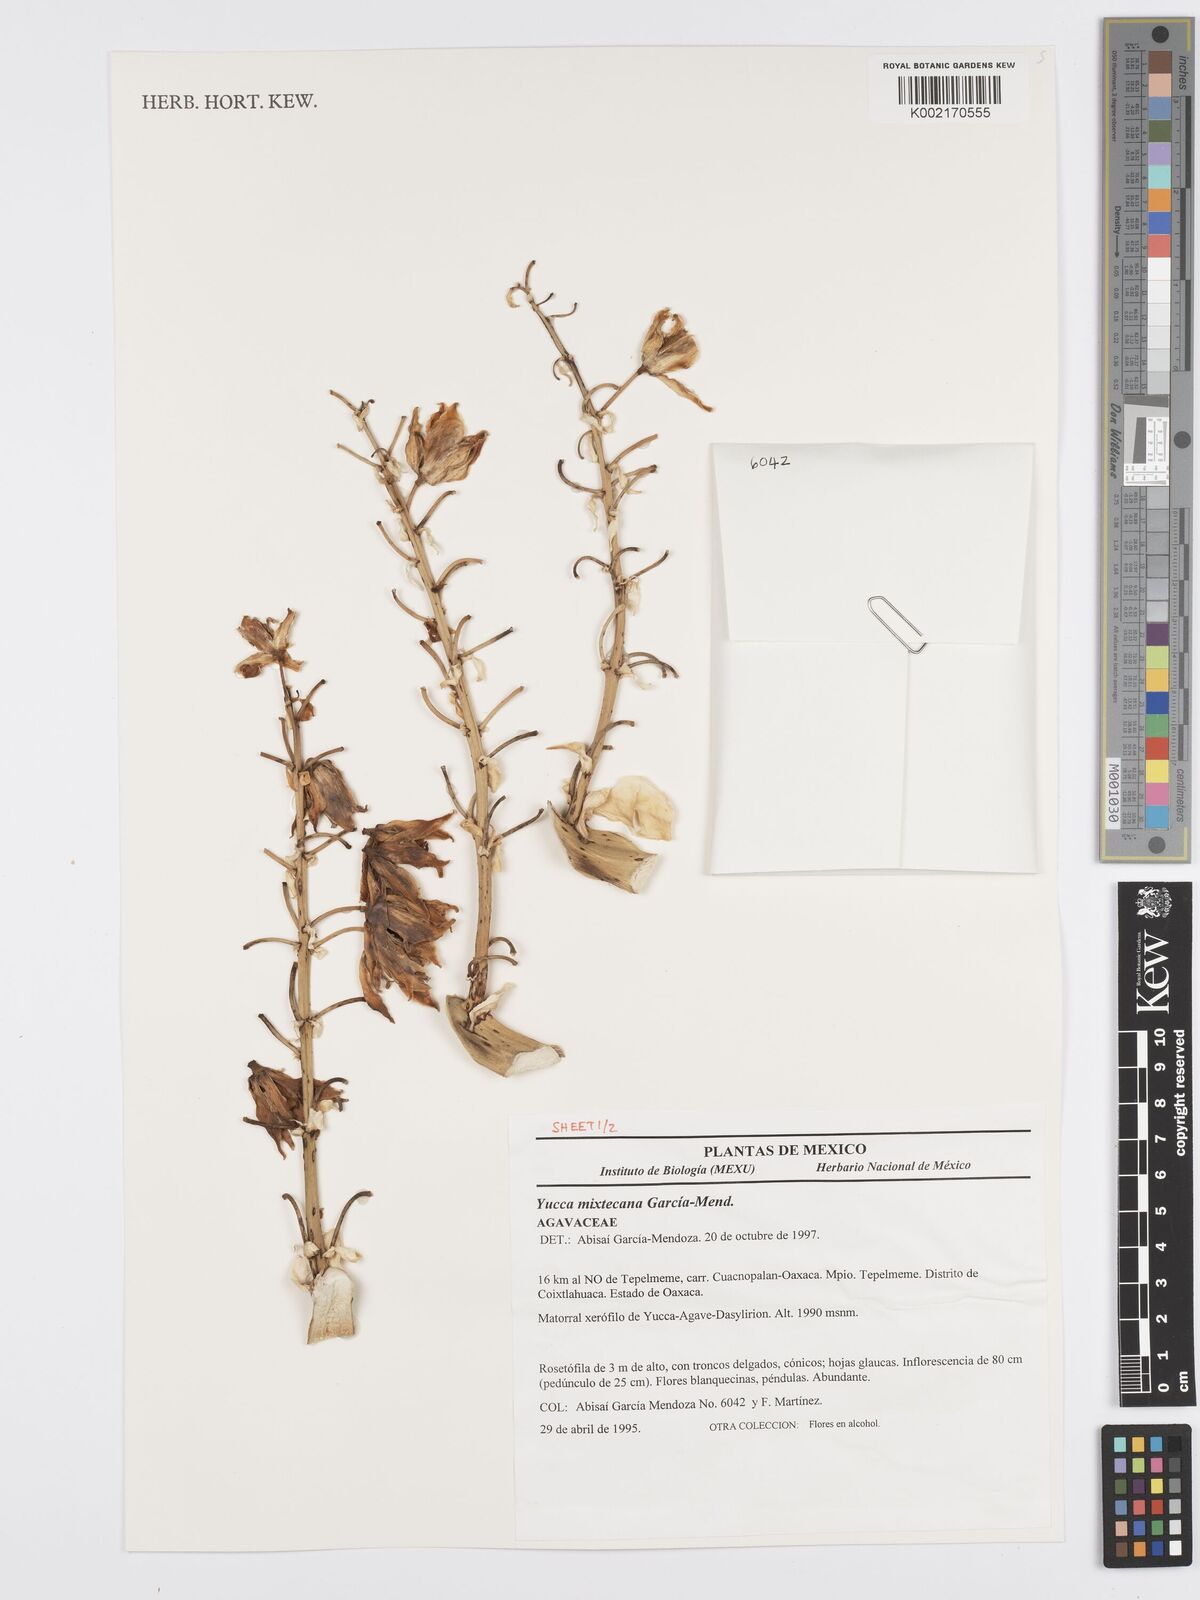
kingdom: Plantae
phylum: Tracheophyta
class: Liliopsida
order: Asparagales
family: Asparagaceae
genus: Yucca
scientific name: Yucca mixtecana
